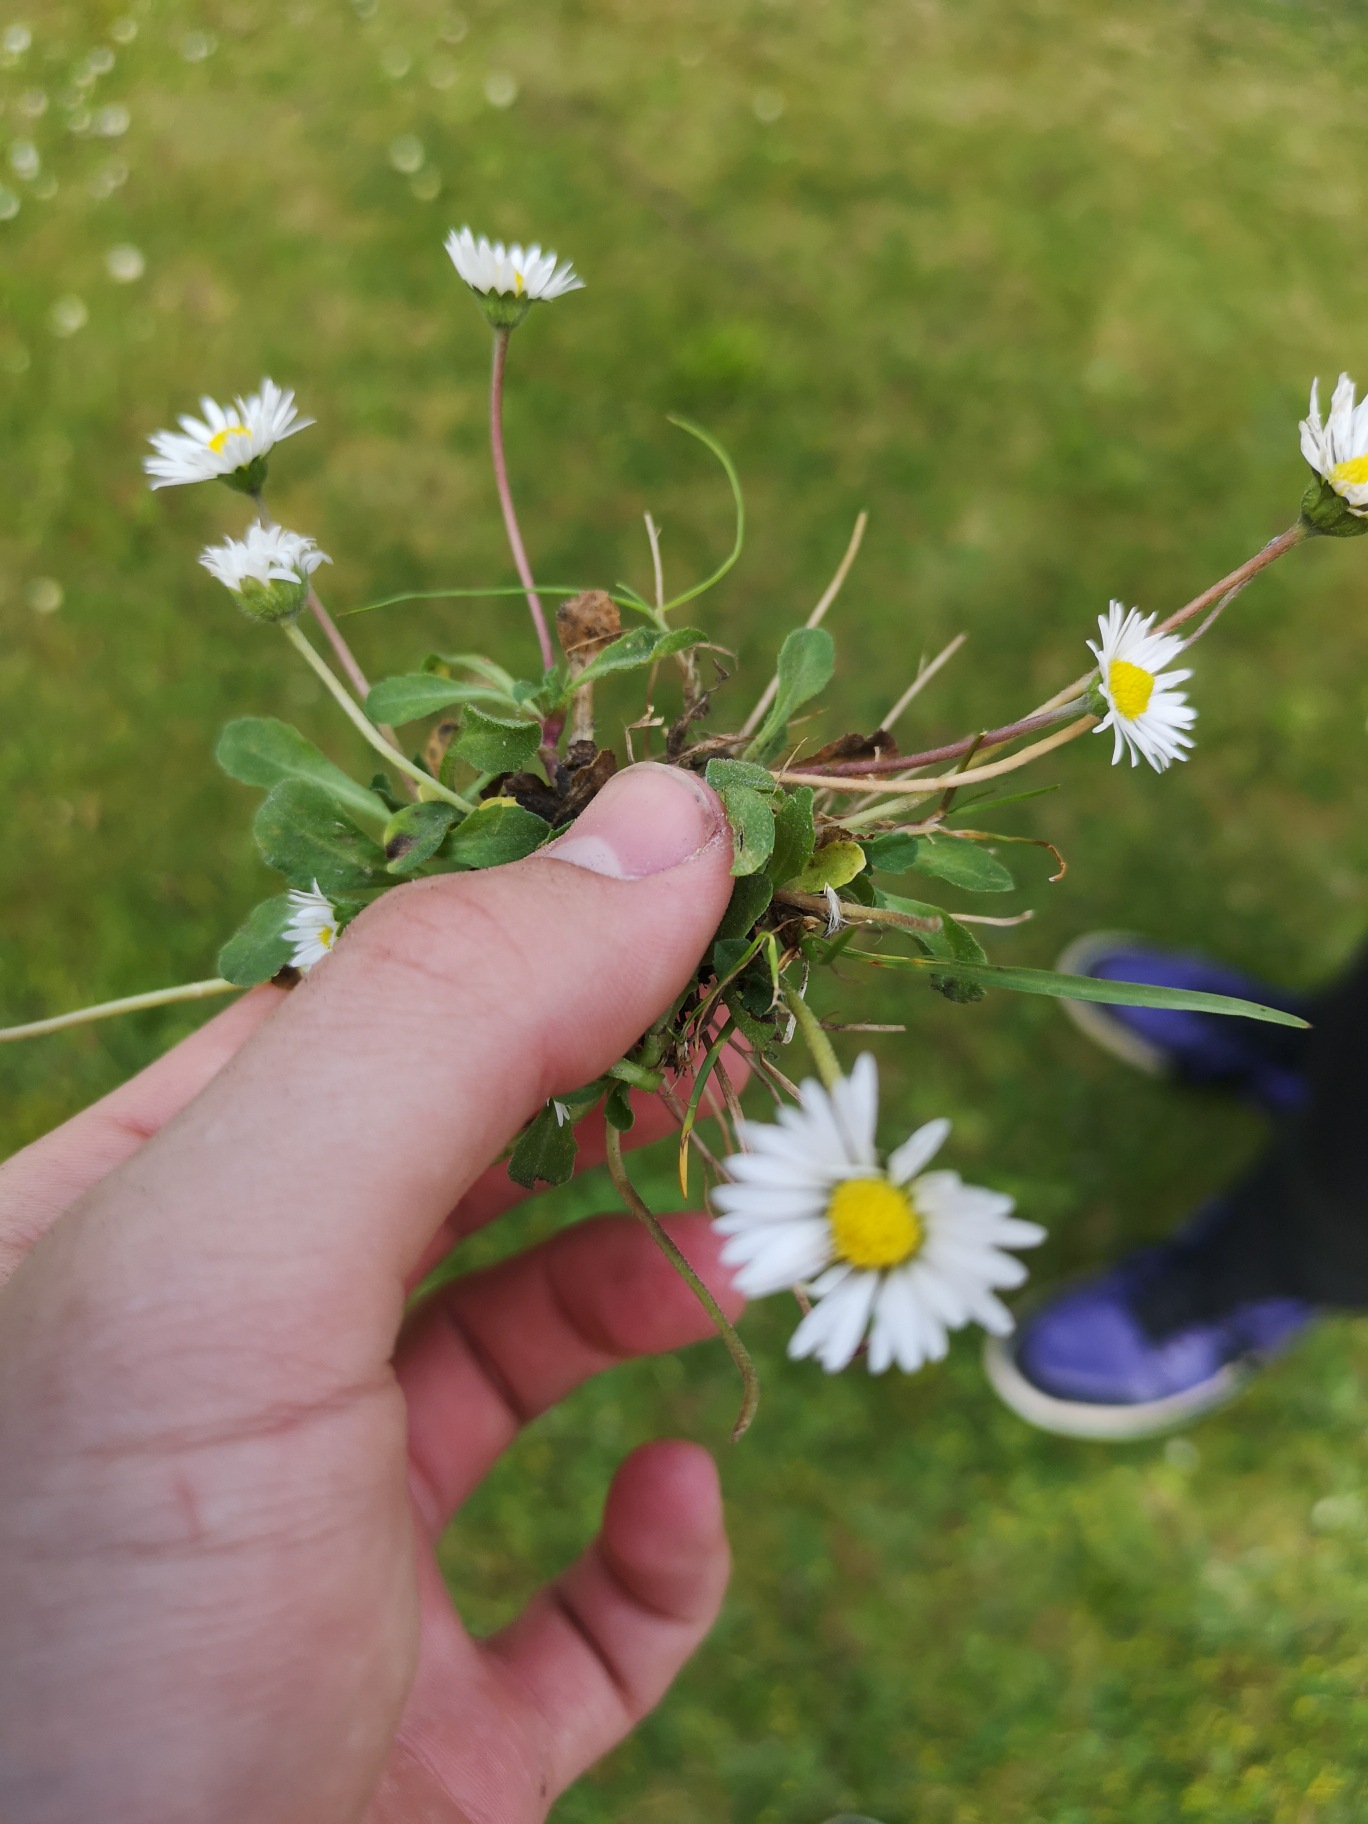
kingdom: Plantae
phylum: Tracheophyta
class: Magnoliopsida
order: Asterales
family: Asteraceae
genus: Bellis
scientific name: Bellis perennis
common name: Tusindfryd
